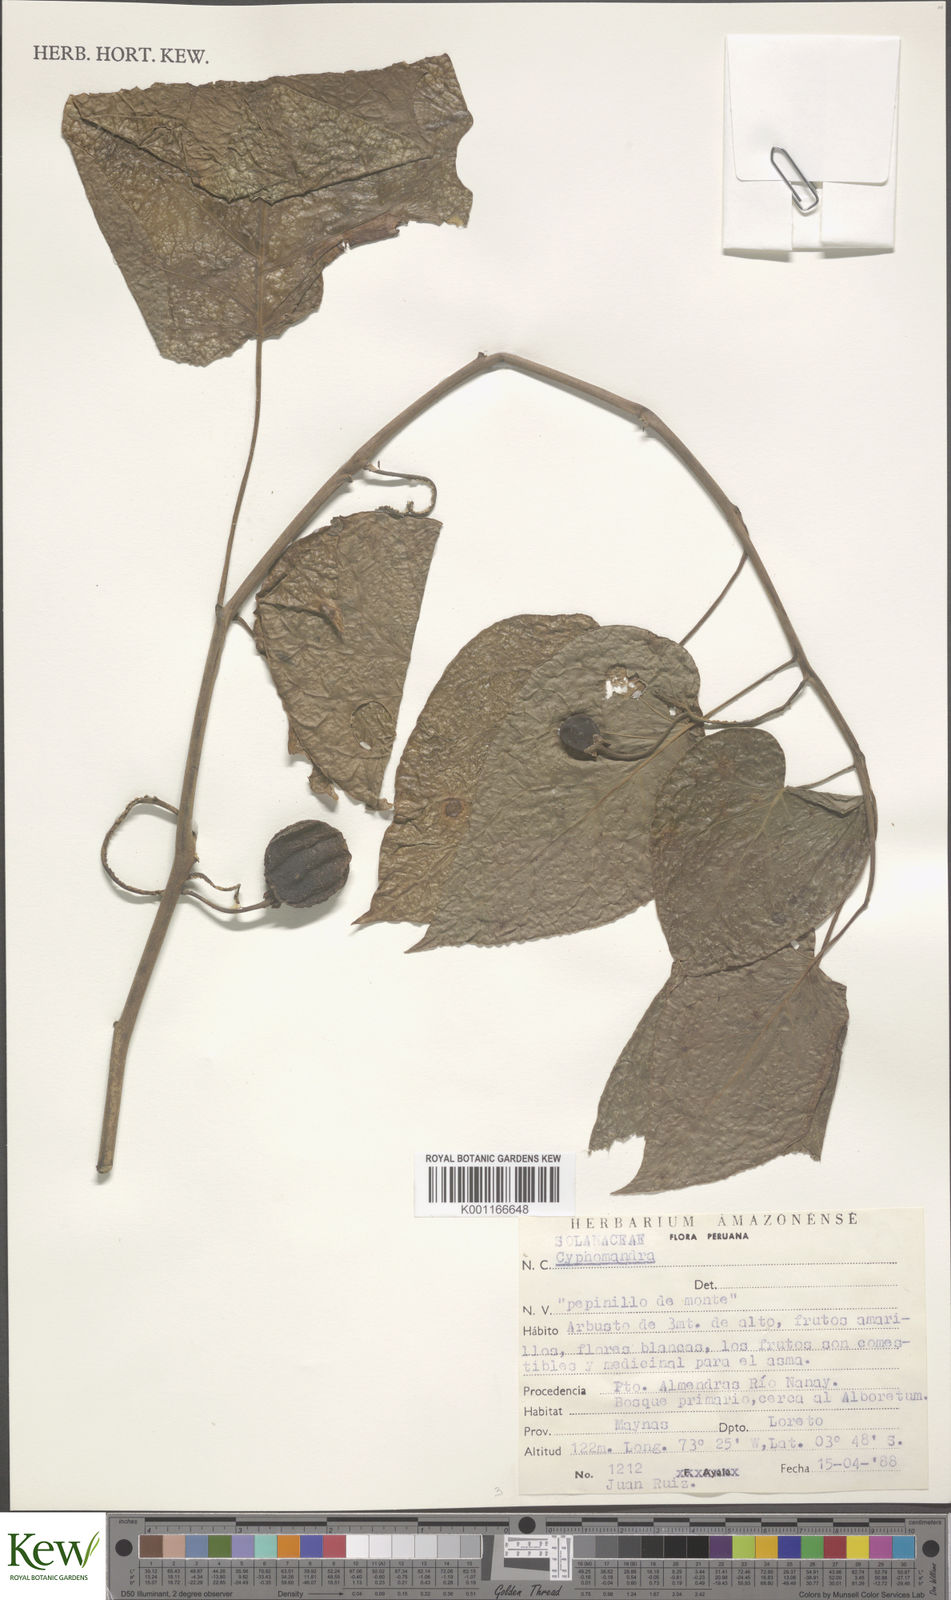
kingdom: Plantae
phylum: Tracheophyta
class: Magnoliopsida
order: Solanales
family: Solanaceae
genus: Solanum
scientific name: Solanum
